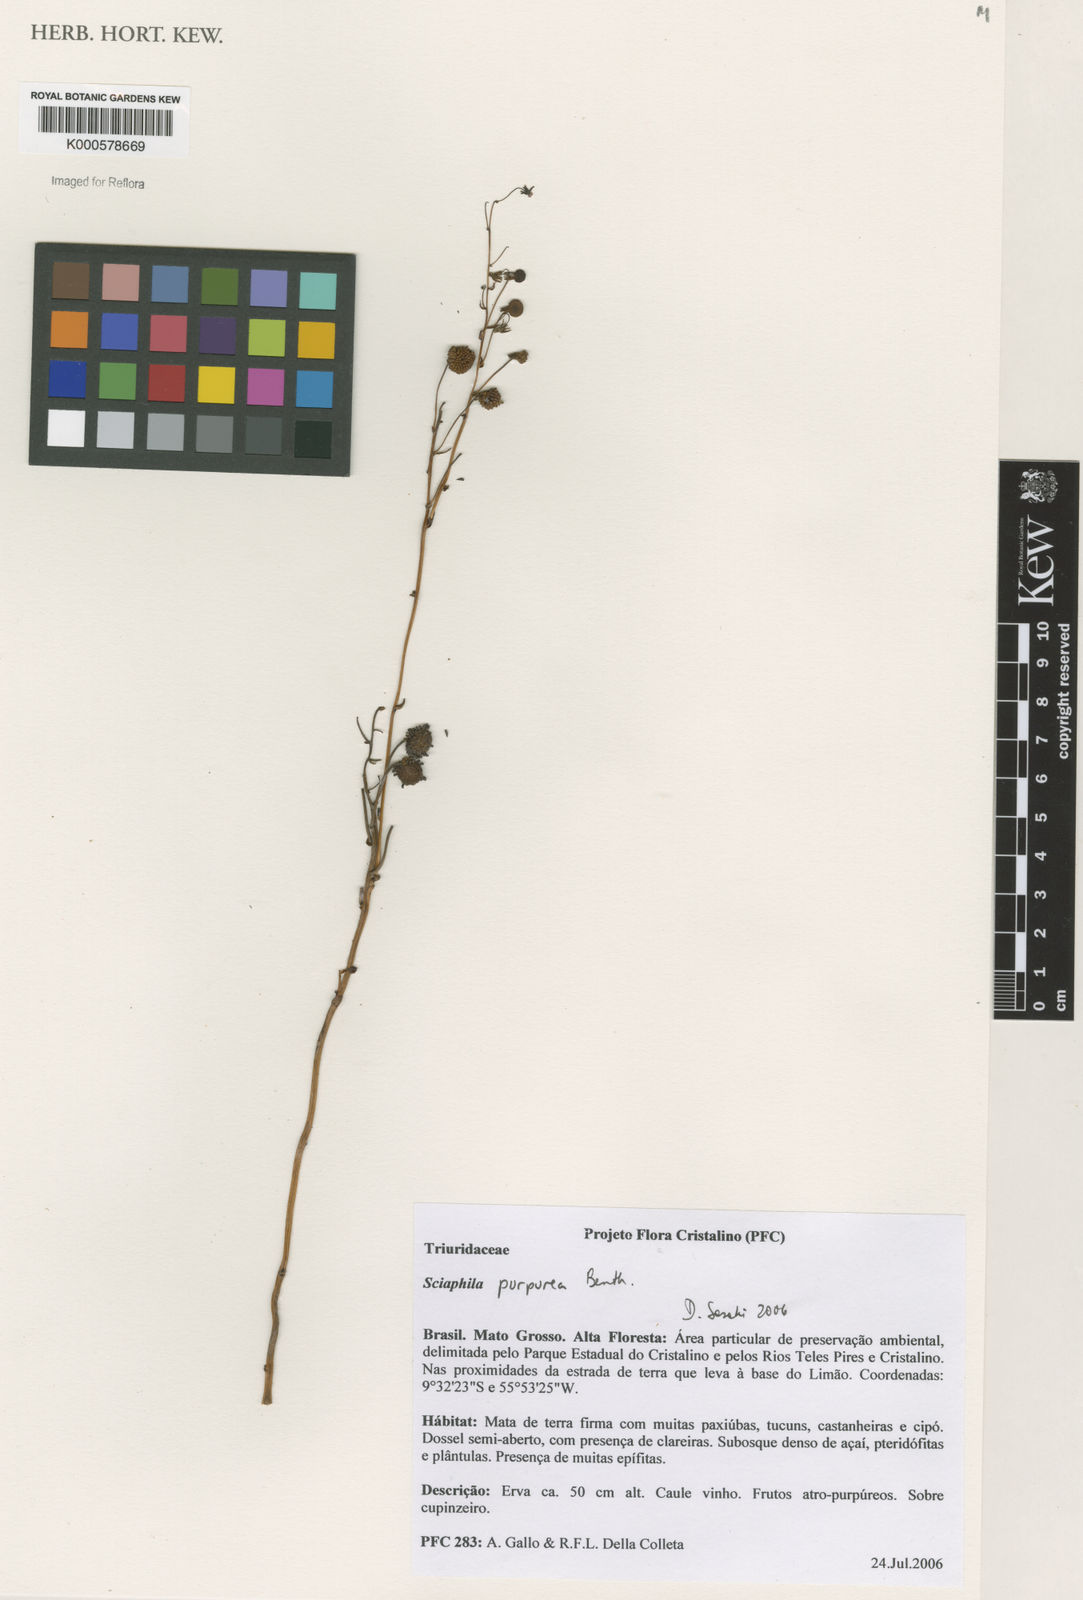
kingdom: Plantae
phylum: Tracheophyta
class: Liliopsida
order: Pandanales
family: Triuridaceae
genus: Sciaphila
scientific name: Sciaphila purpurea
